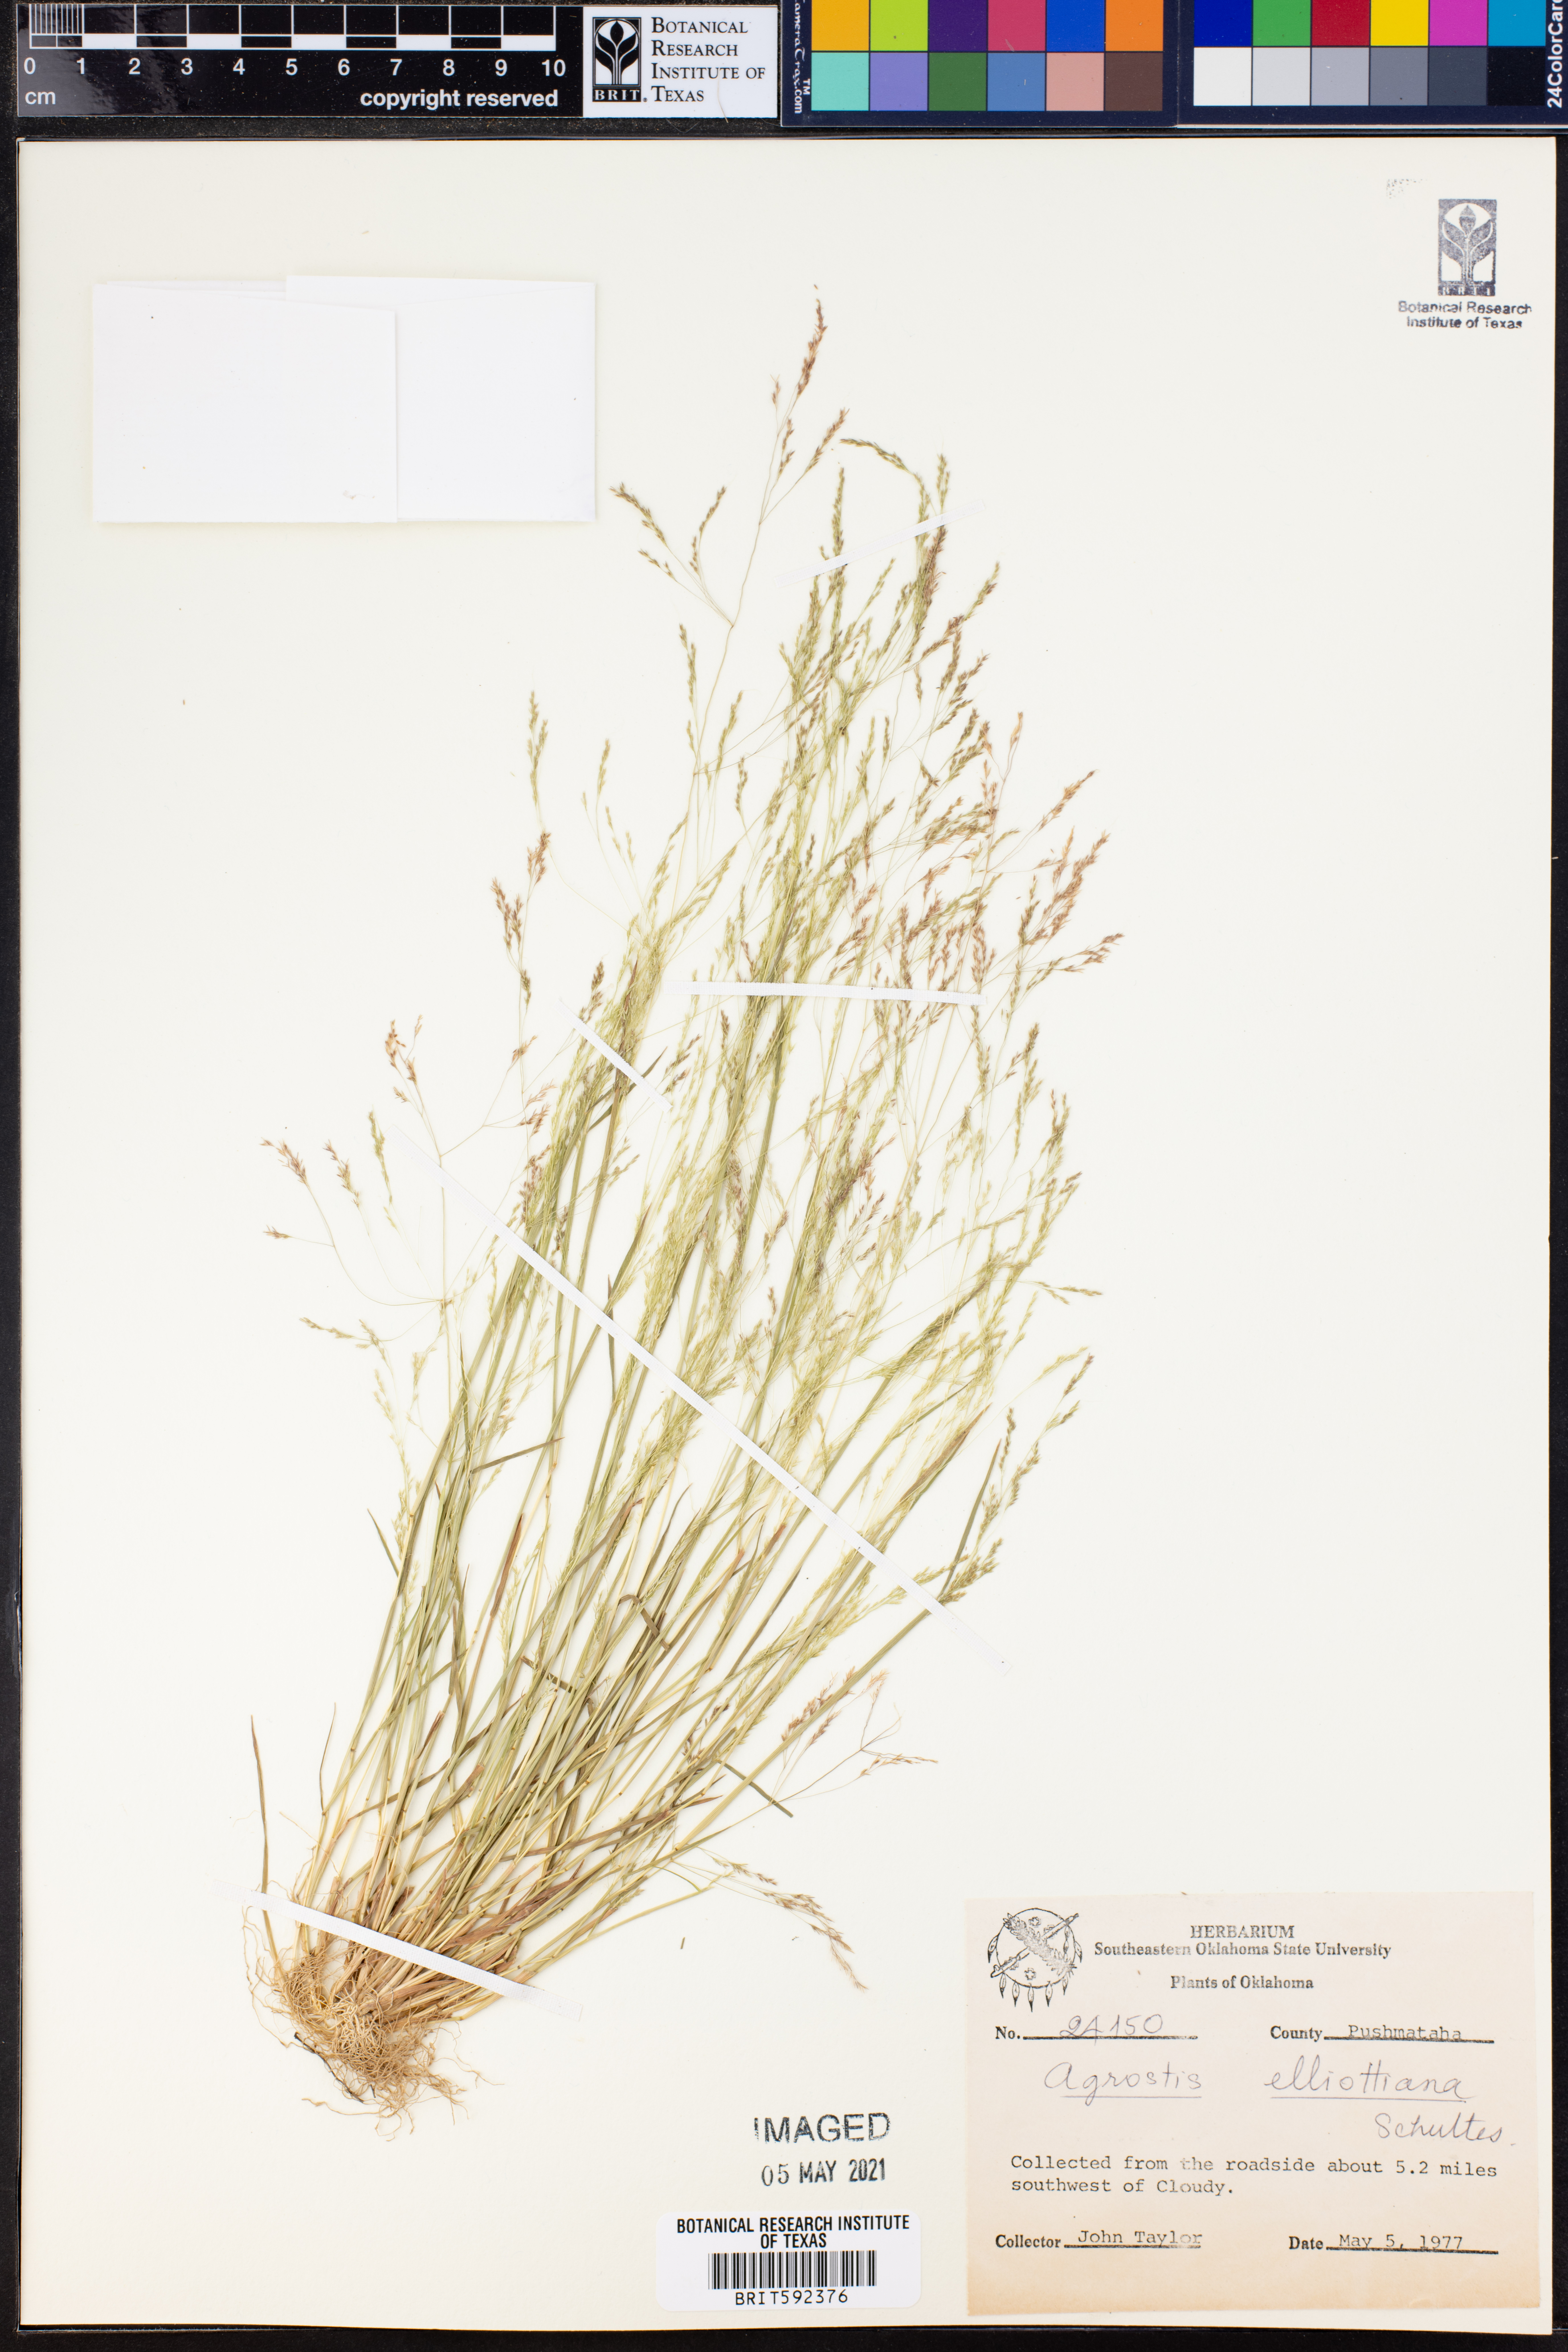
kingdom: Plantae
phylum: Tracheophyta
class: Liliopsida
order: Poales
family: Poaceae
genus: Agrostis
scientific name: Agrostis elliottiana
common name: Elliott's bent
